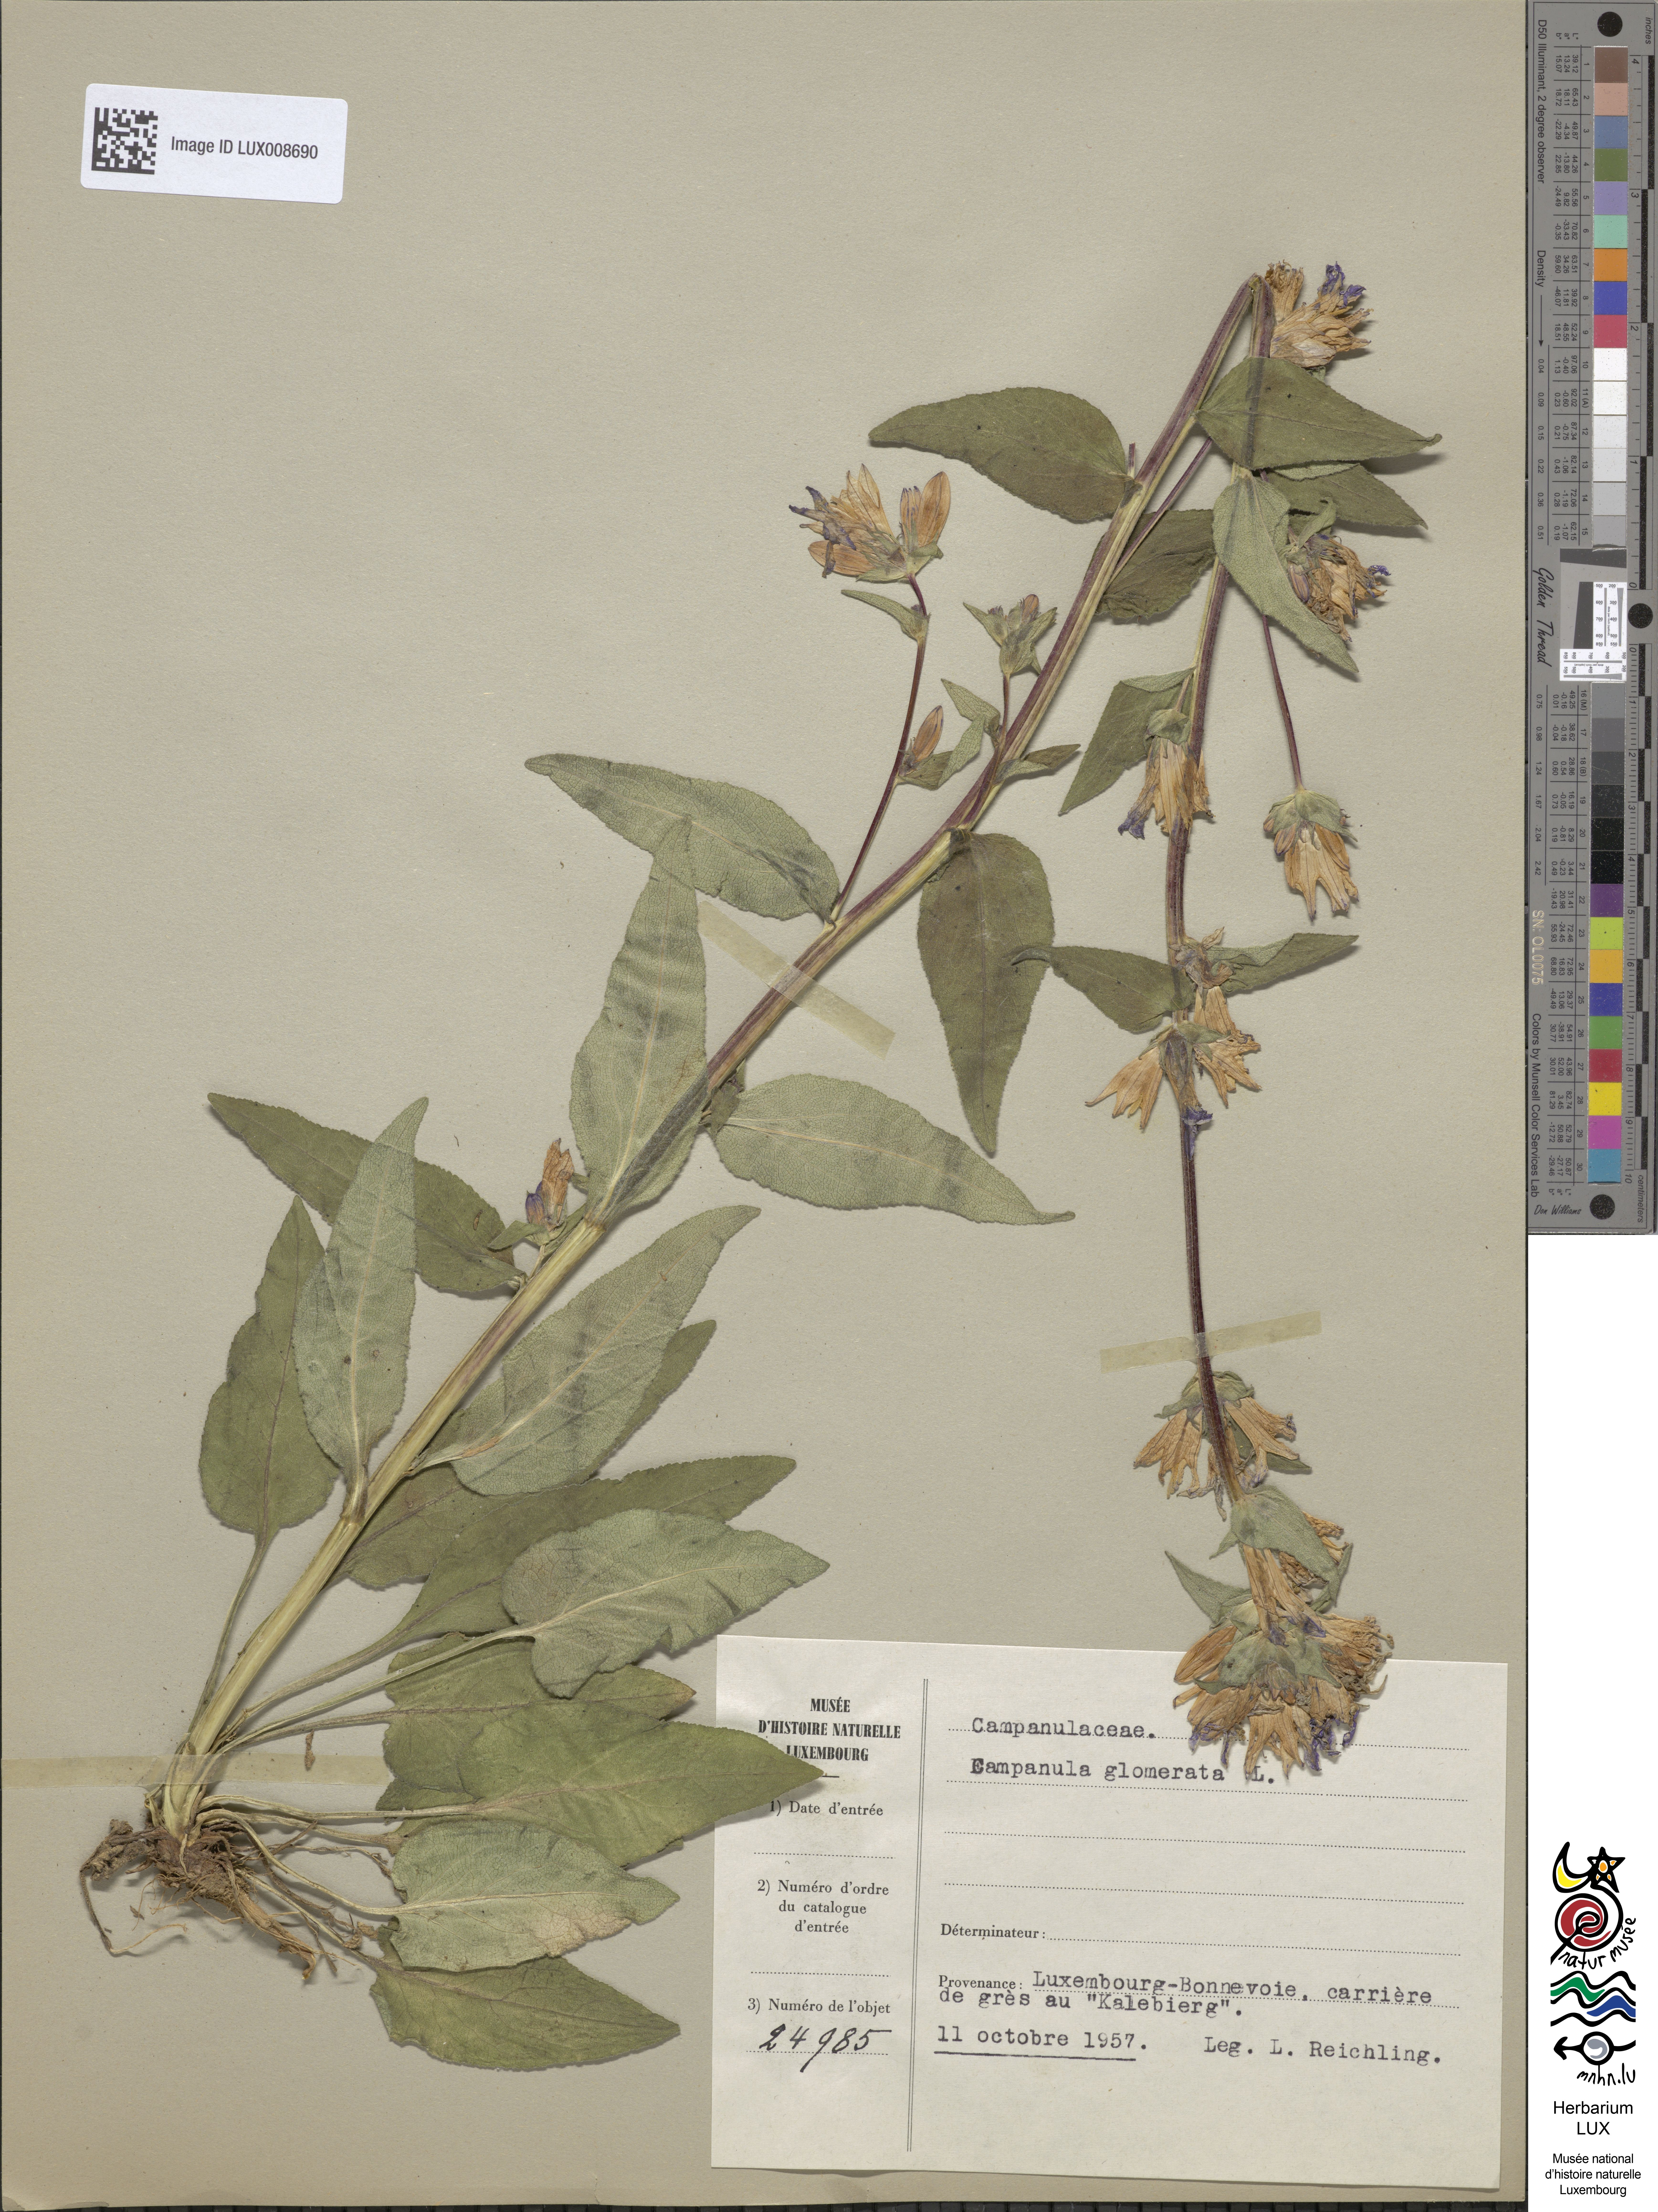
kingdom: Plantae
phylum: Tracheophyta
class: Magnoliopsida
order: Asterales
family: Campanulaceae
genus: Campanula
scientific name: Campanula glomerata
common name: Clustered bellflower
